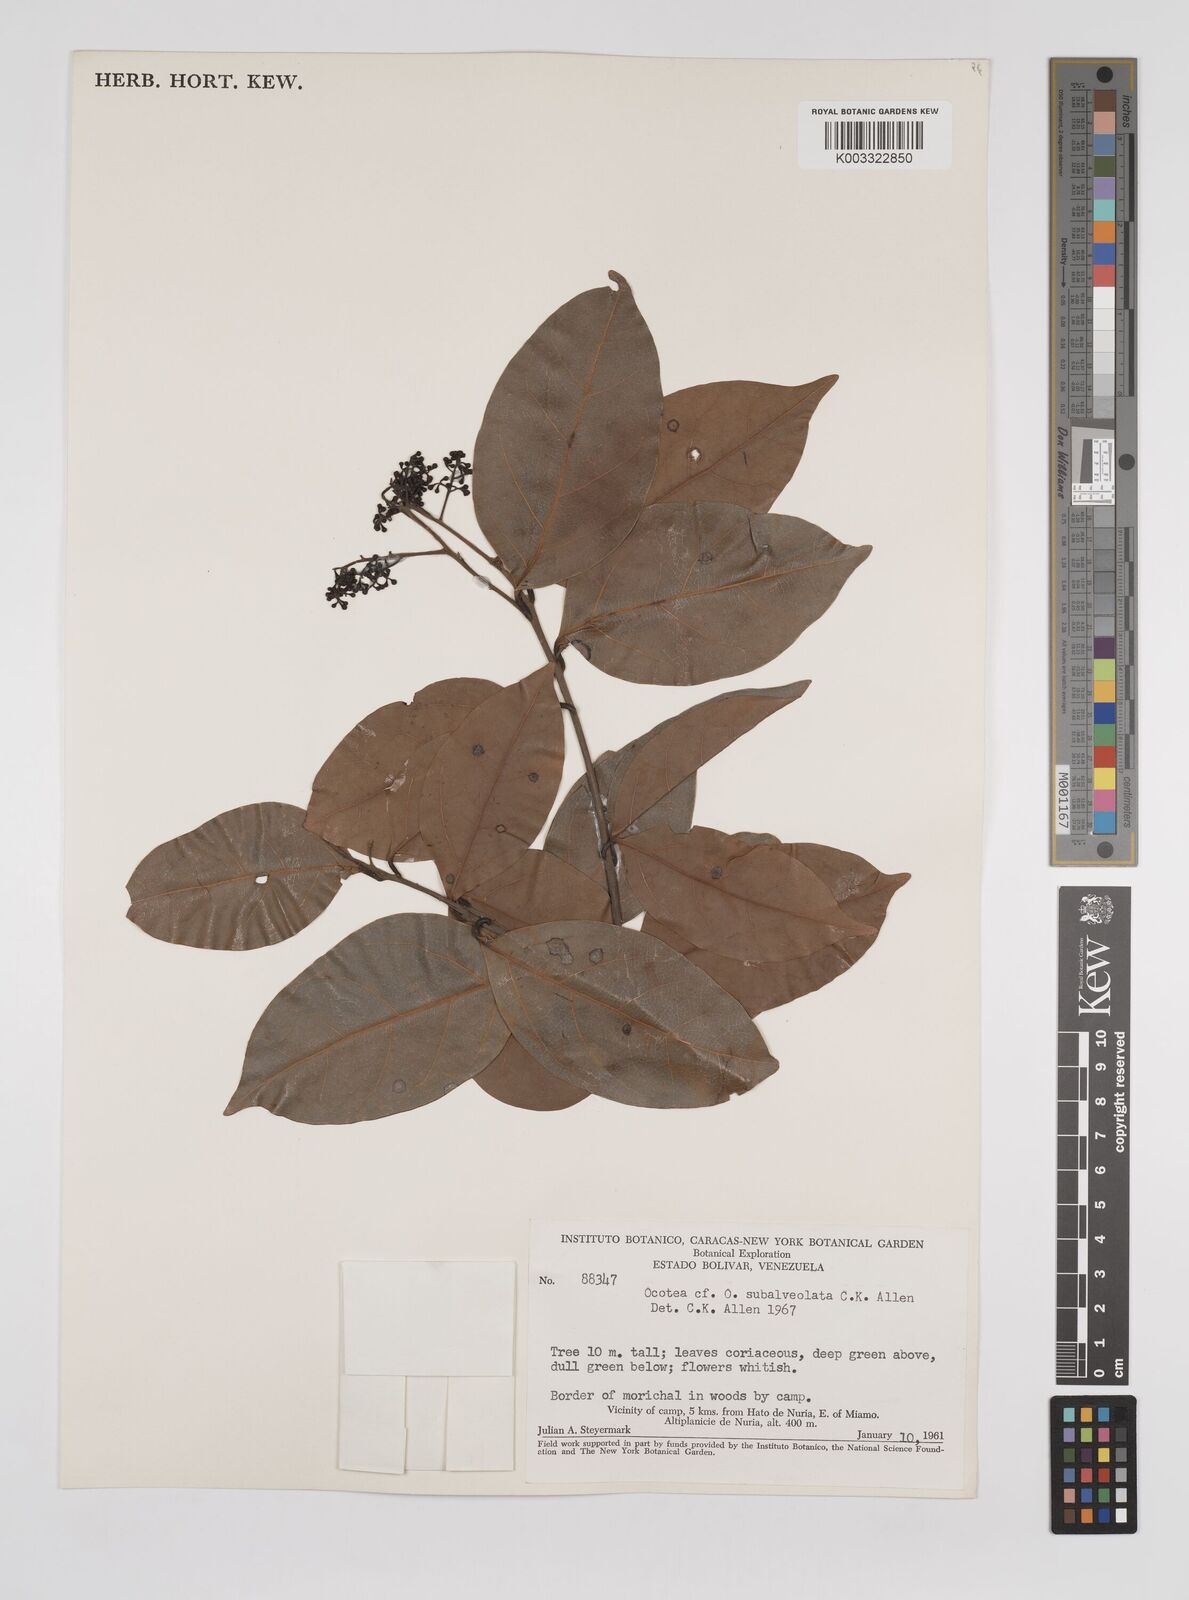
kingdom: Plantae
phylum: Tracheophyta
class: Magnoliopsida
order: Laurales
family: Lauraceae
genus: Ocotea
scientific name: Ocotea schomburgkiana
